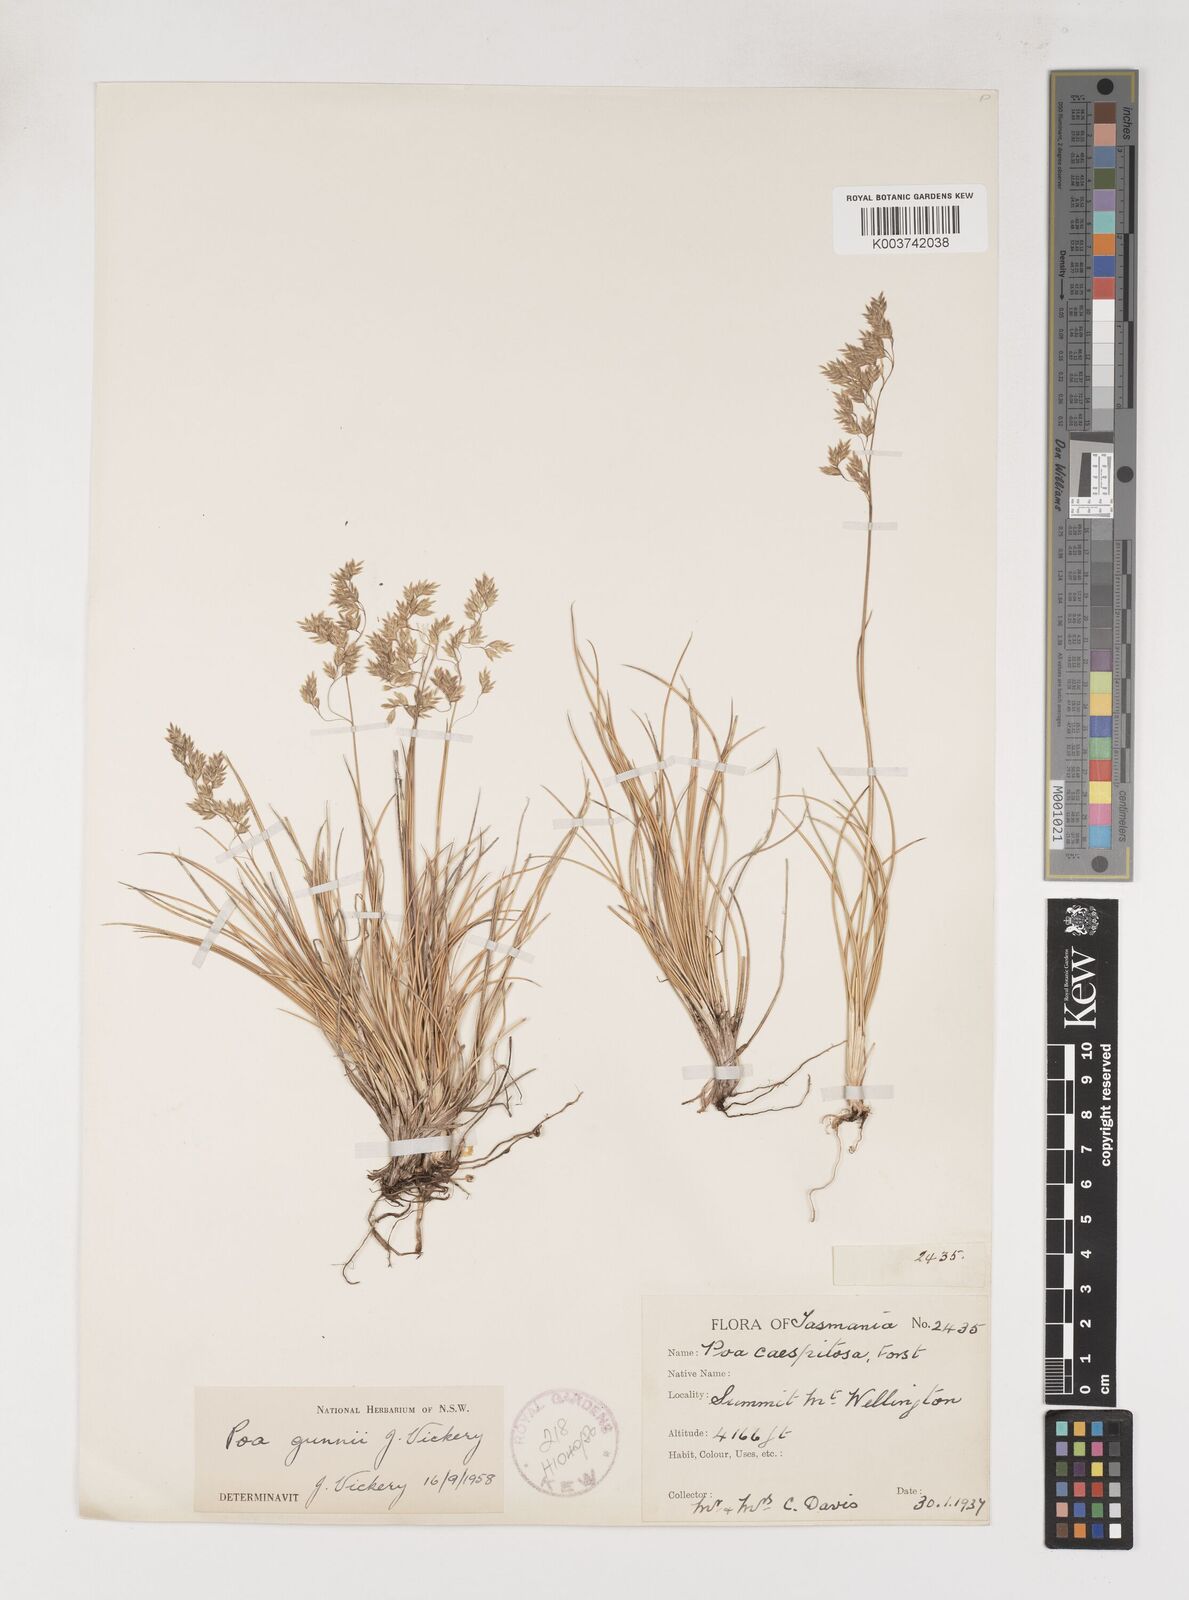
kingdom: Plantae
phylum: Tracheophyta
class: Liliopsida
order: Poales
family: Poaceae
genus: Poa
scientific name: Poa gunnii
